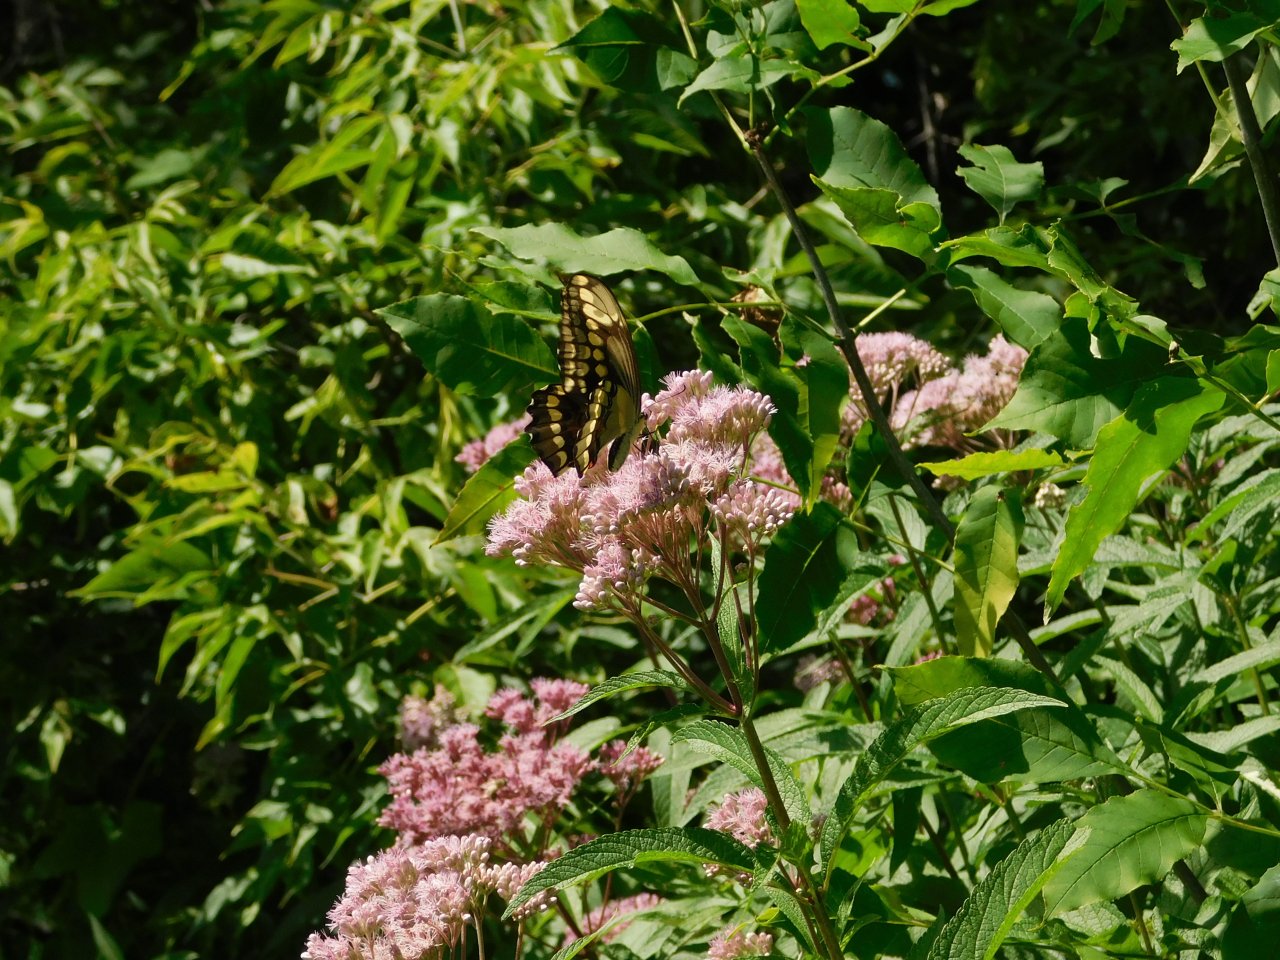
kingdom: Animalia
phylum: Arthropoda
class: Insecta
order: Lepidoptera
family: Papilionidae
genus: Papilio
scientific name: Papilio cresphontes
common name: Eastern Giant Swallowtail
